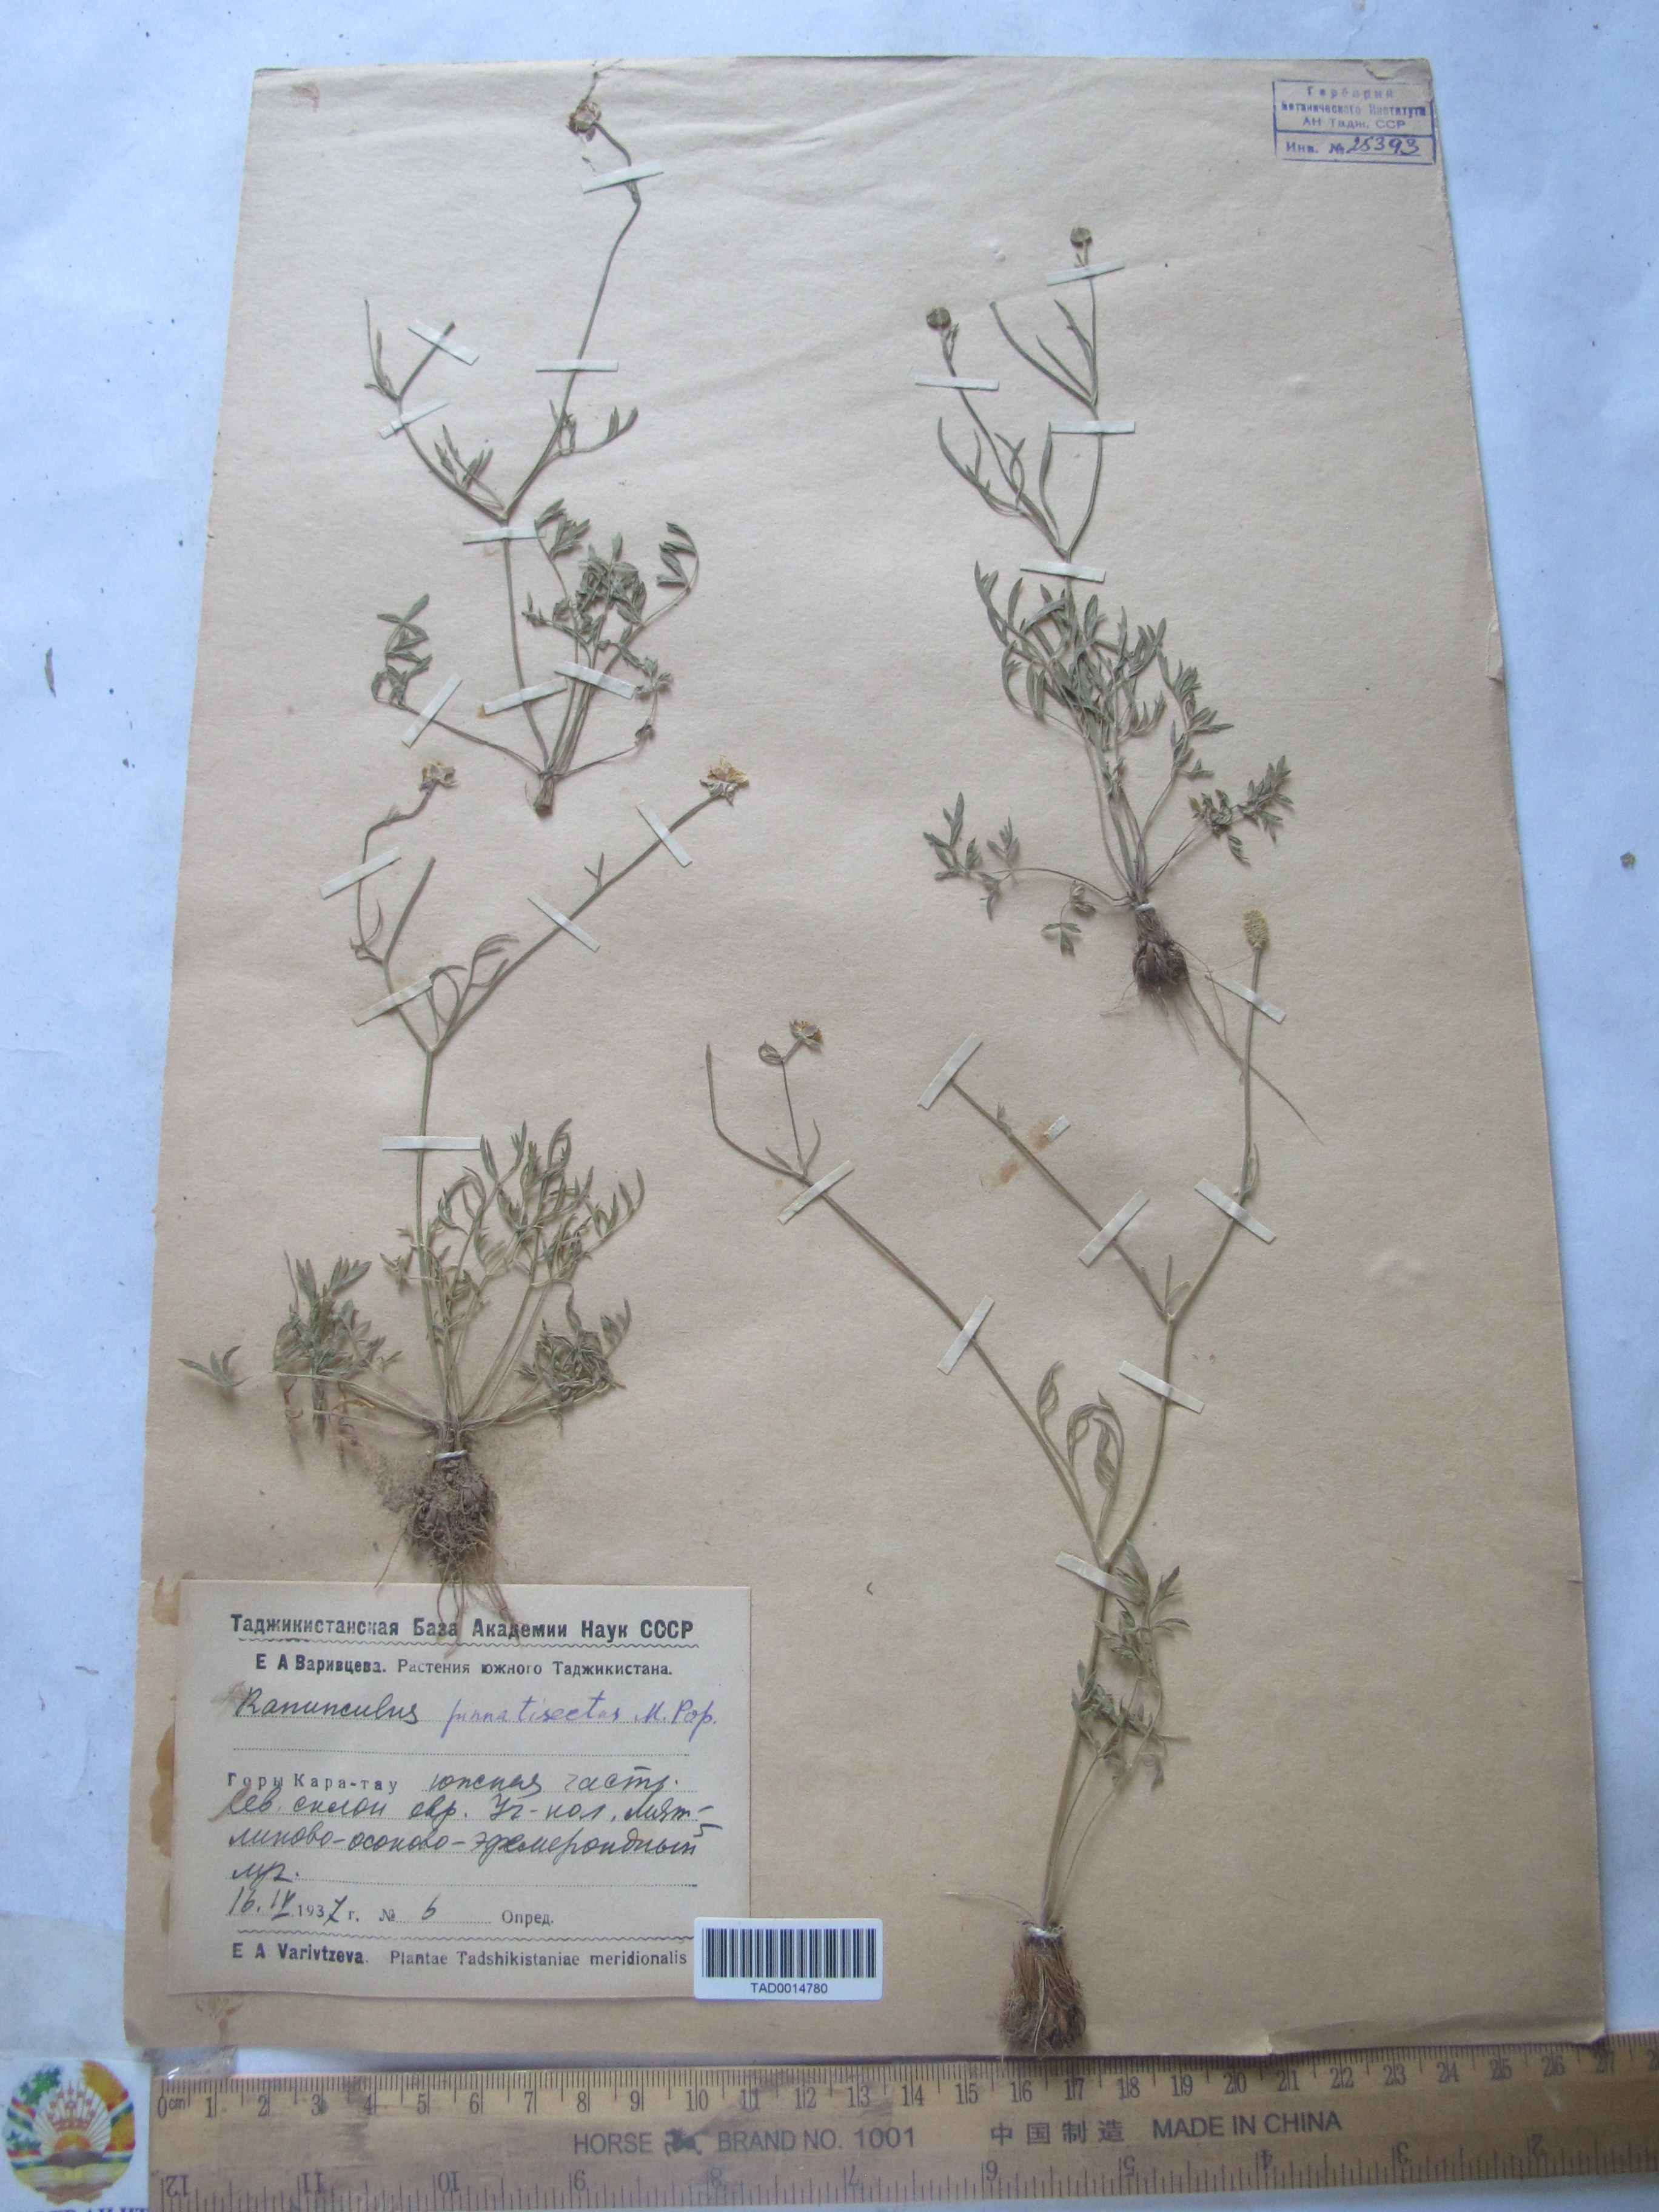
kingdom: Plantae
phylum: Tracheophyta
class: Magnoliopsida
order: Ranunculales
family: Ranunculaceae
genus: Ranunculus
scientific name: Ranunculus pinnatisectus
